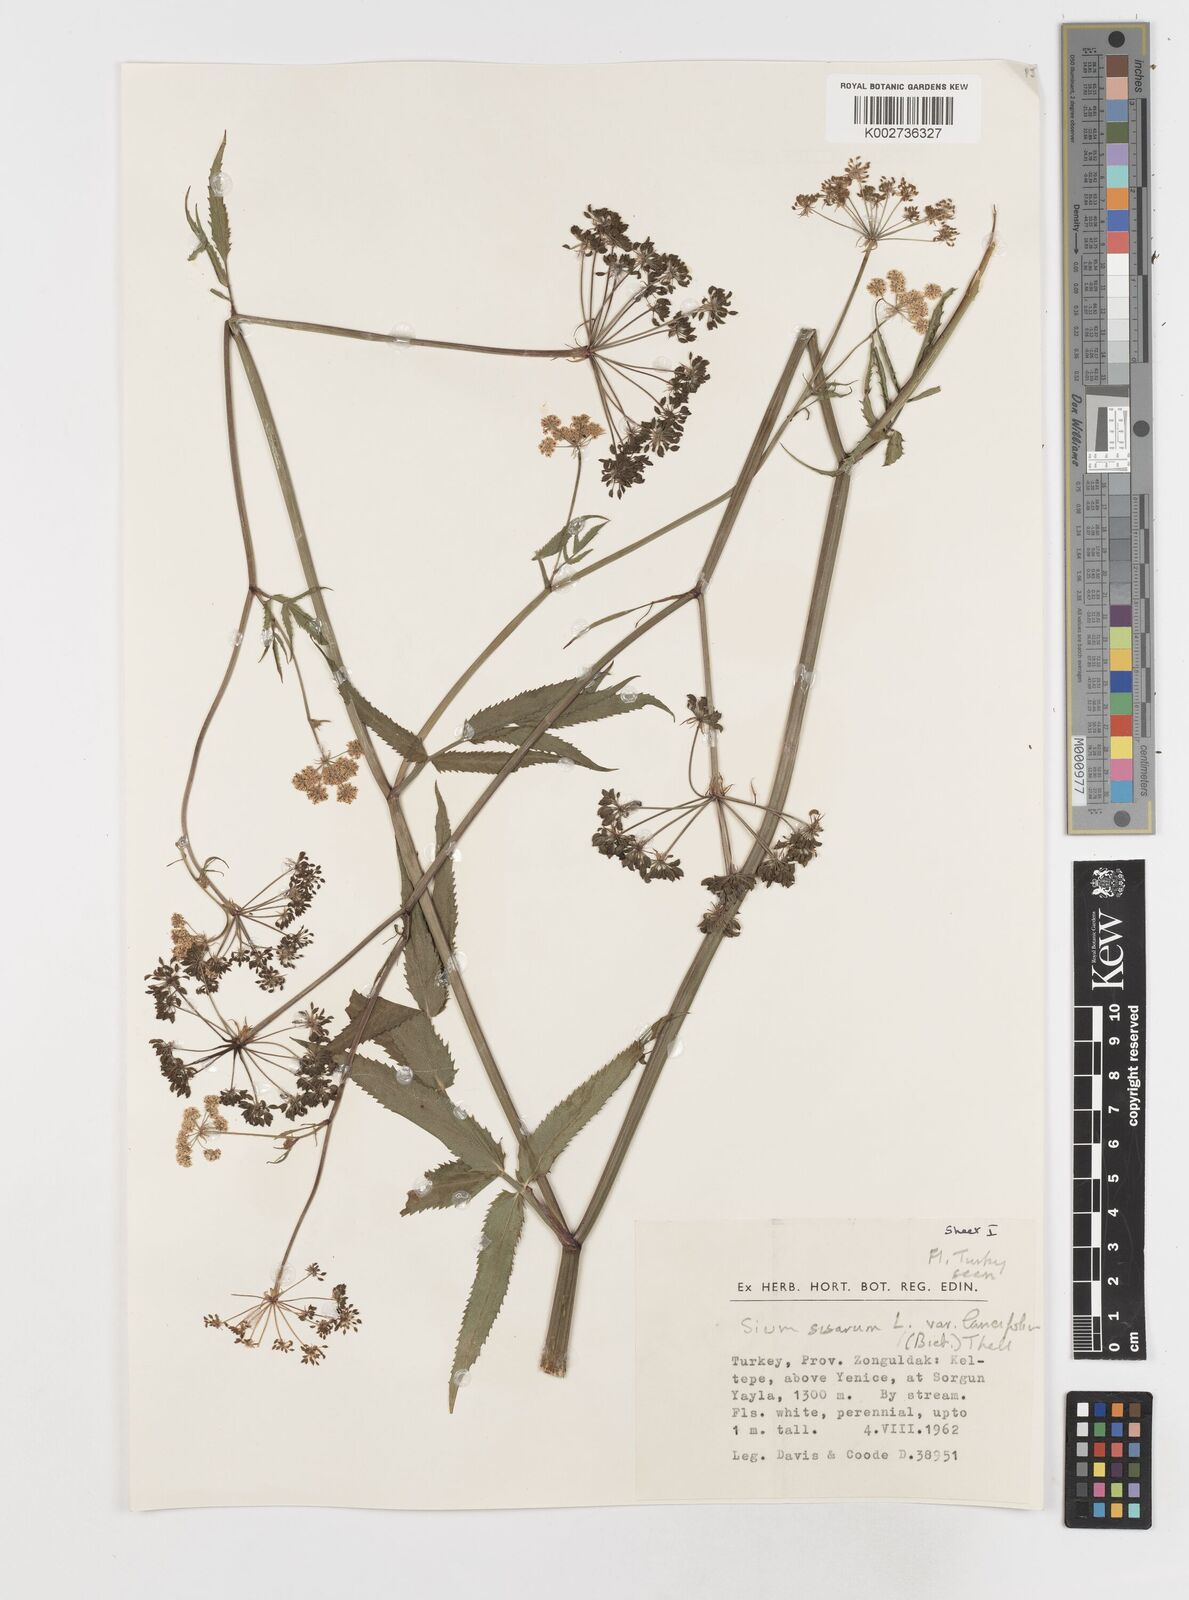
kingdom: Plantae
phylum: Tracheophyta
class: Magnoliopsida
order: Apiales
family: Apiaceae
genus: Sium
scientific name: Sium sisarum
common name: Skirret
